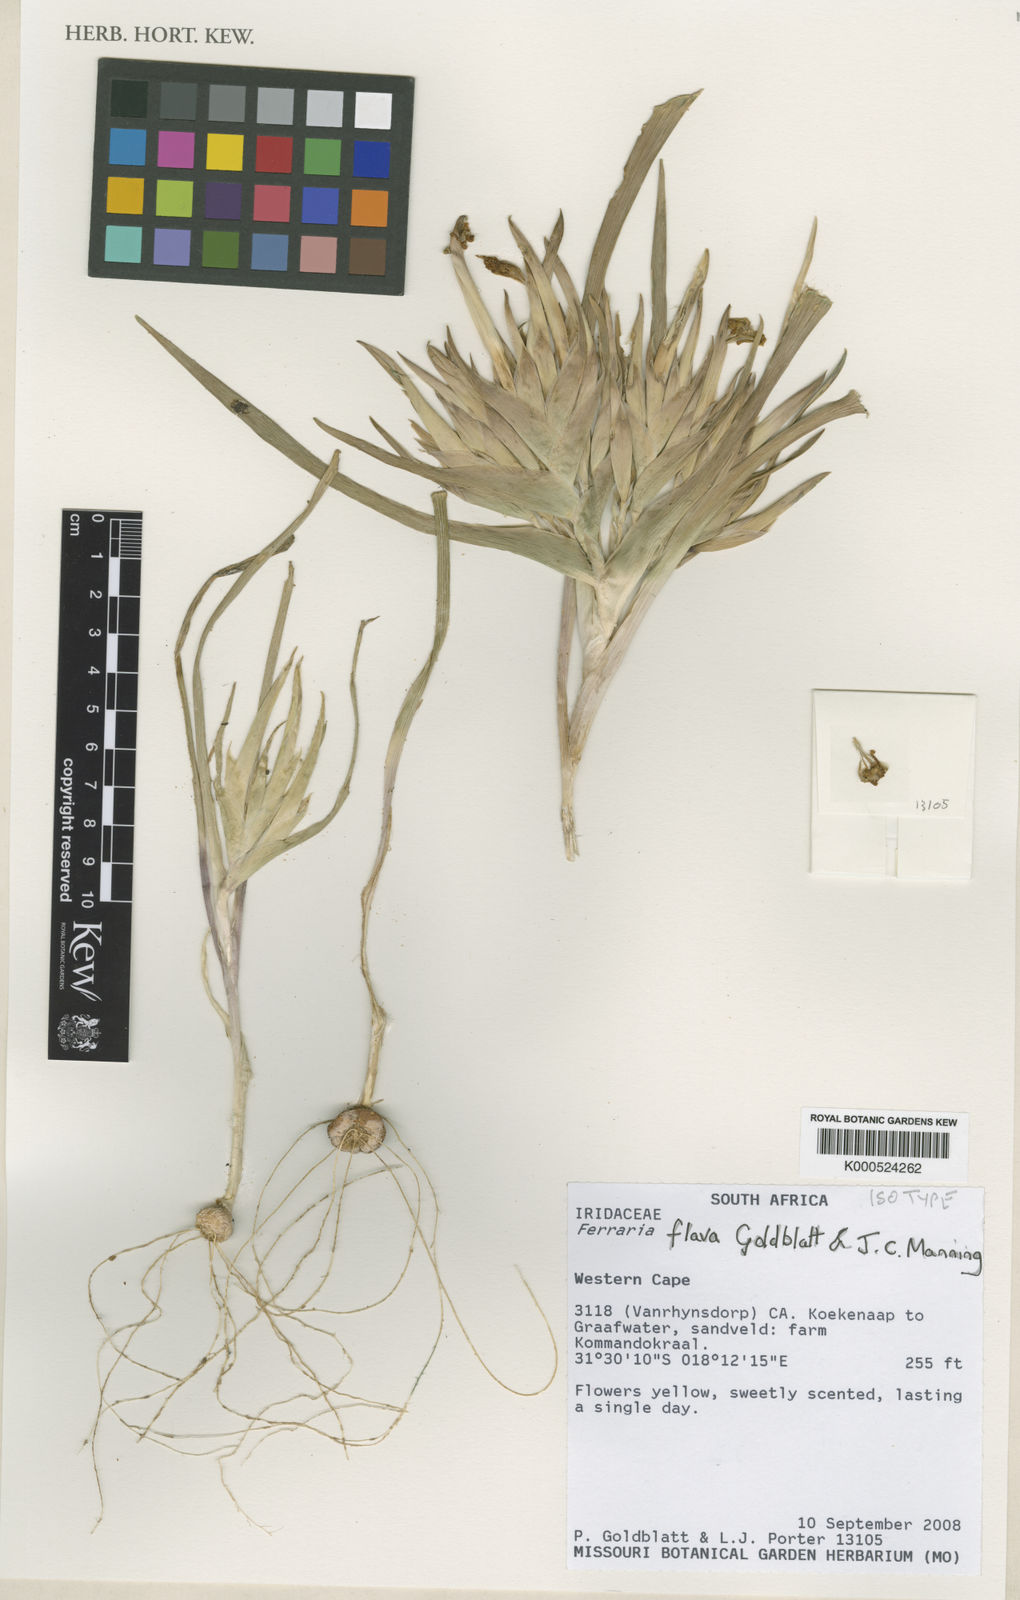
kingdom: Plantae
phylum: Tracheophyta
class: Liliopsida
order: Asparagales
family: Iridaceae
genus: Ferraria
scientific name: Ferraria flava
